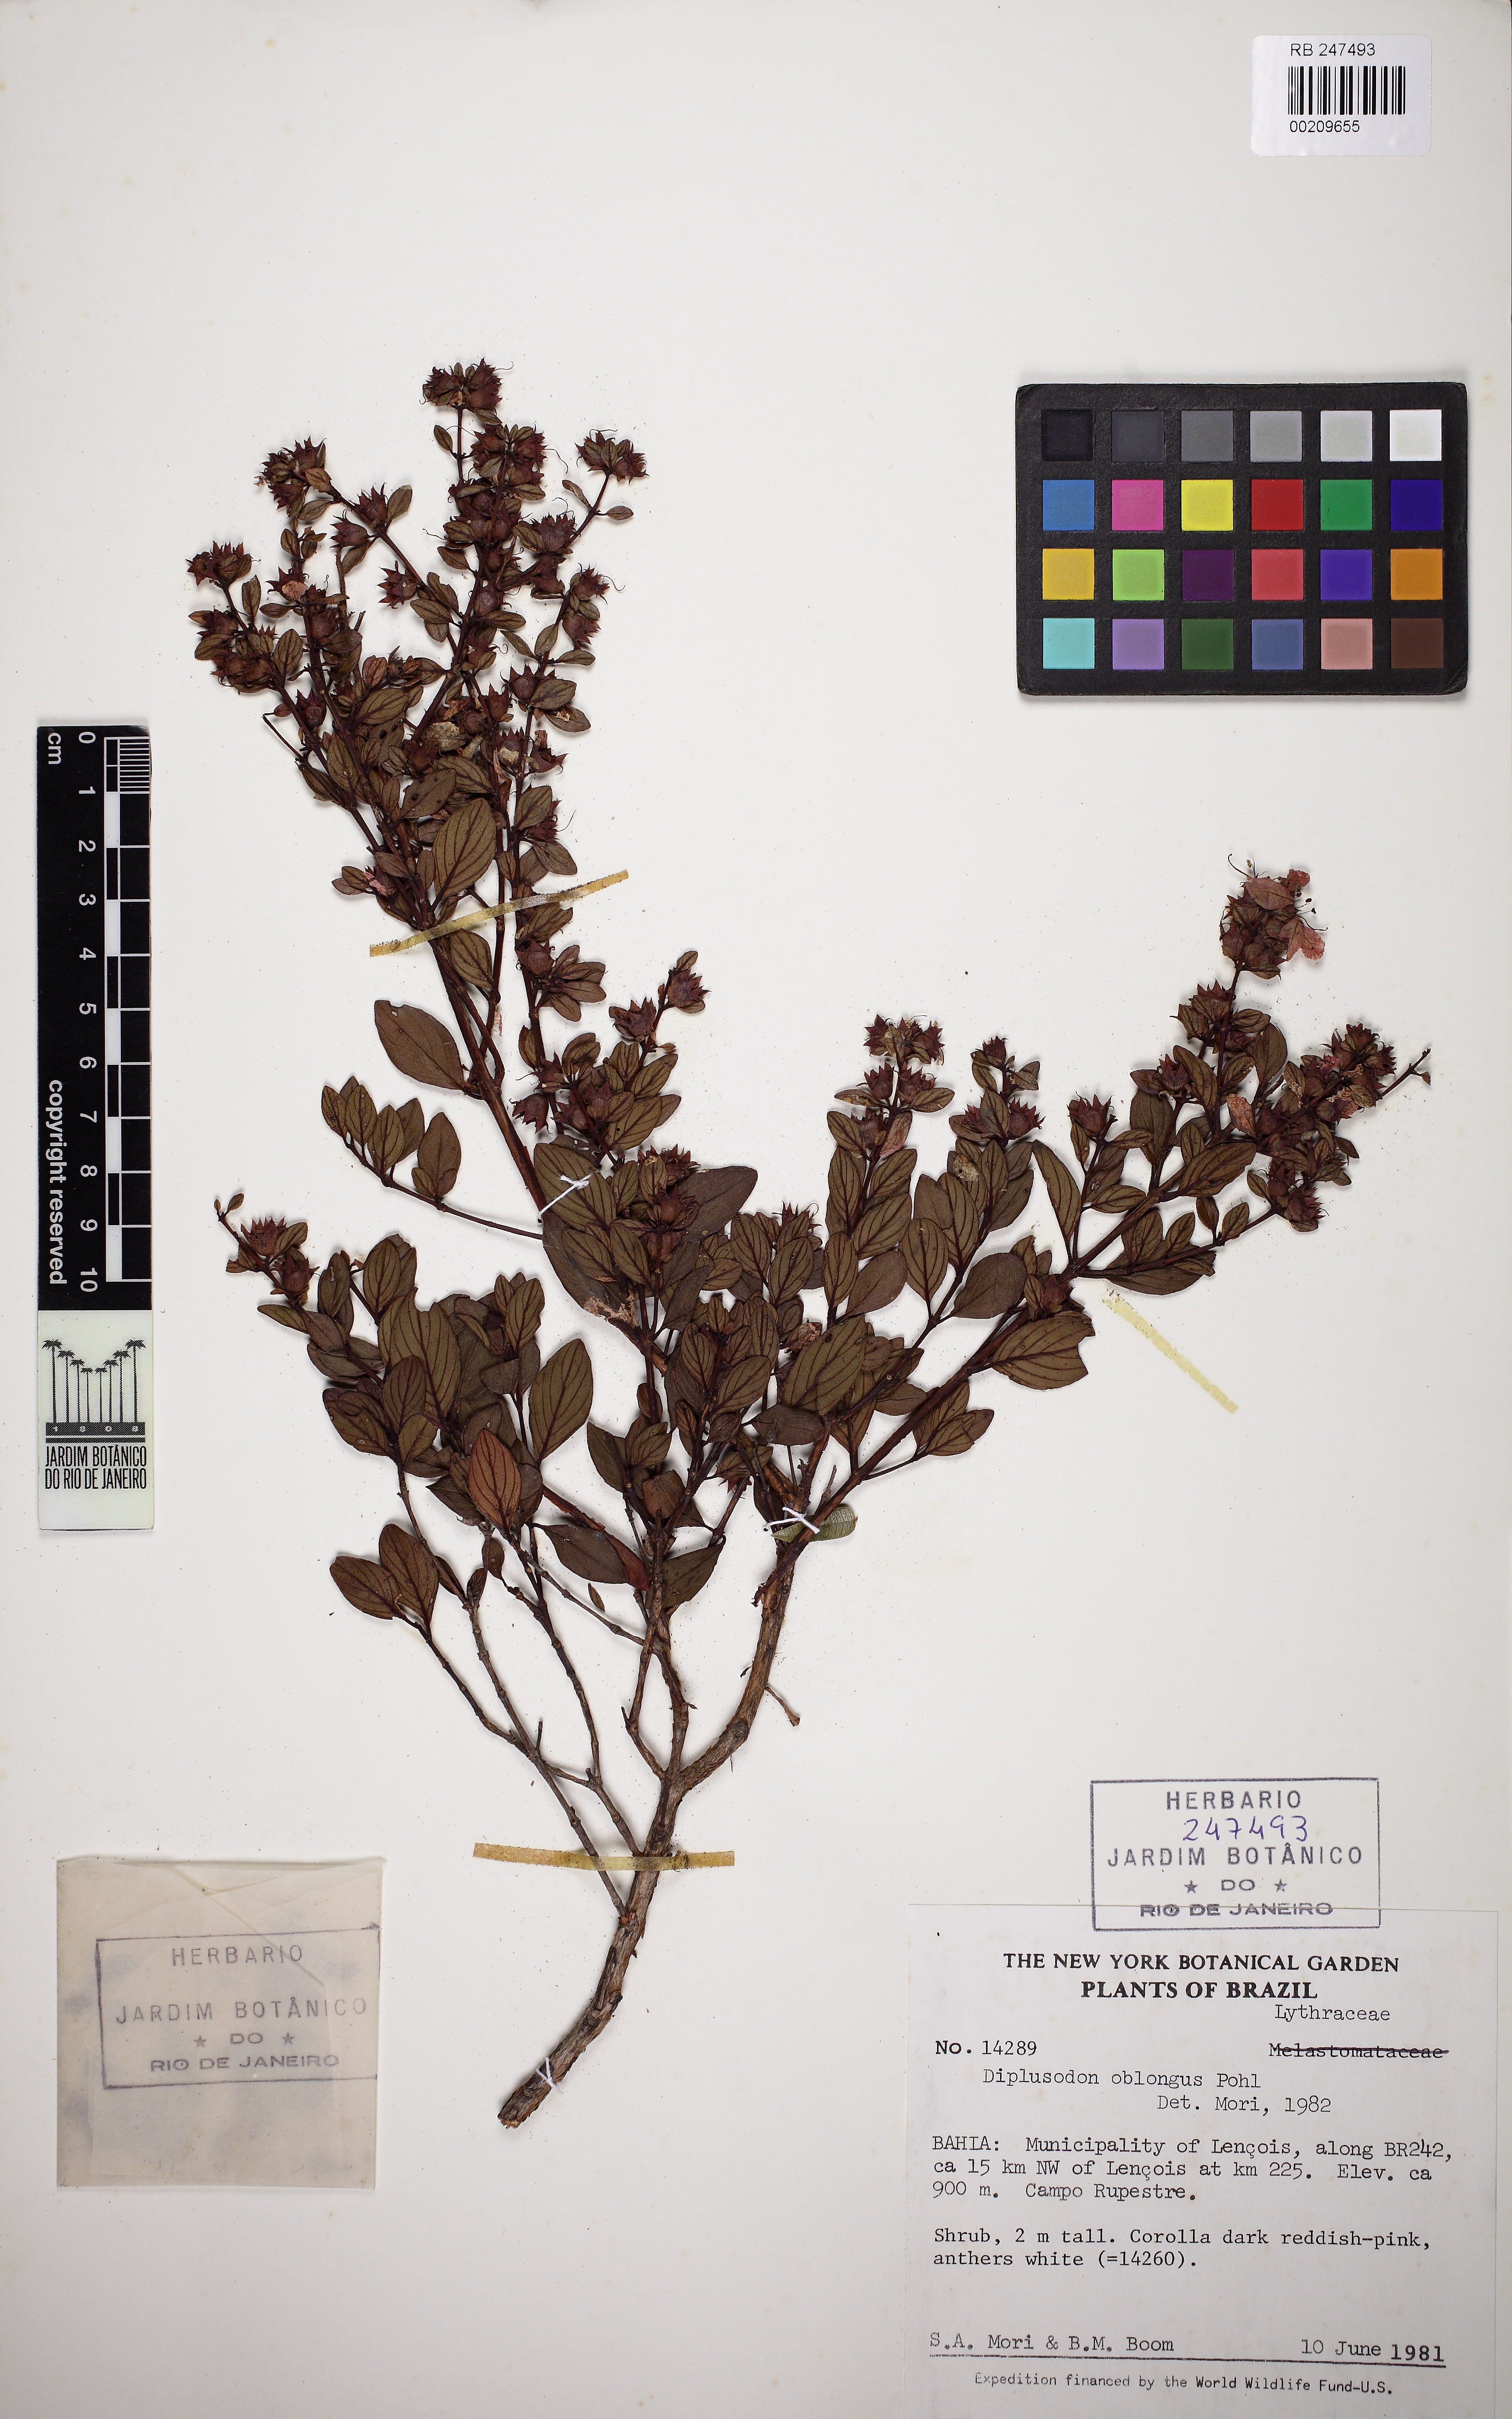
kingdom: Plantae
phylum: Tracheophyta
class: Magnoliopsida
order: Myrtales
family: Lythraceae
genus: Diplusodon
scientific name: Diplusodon oblongus
